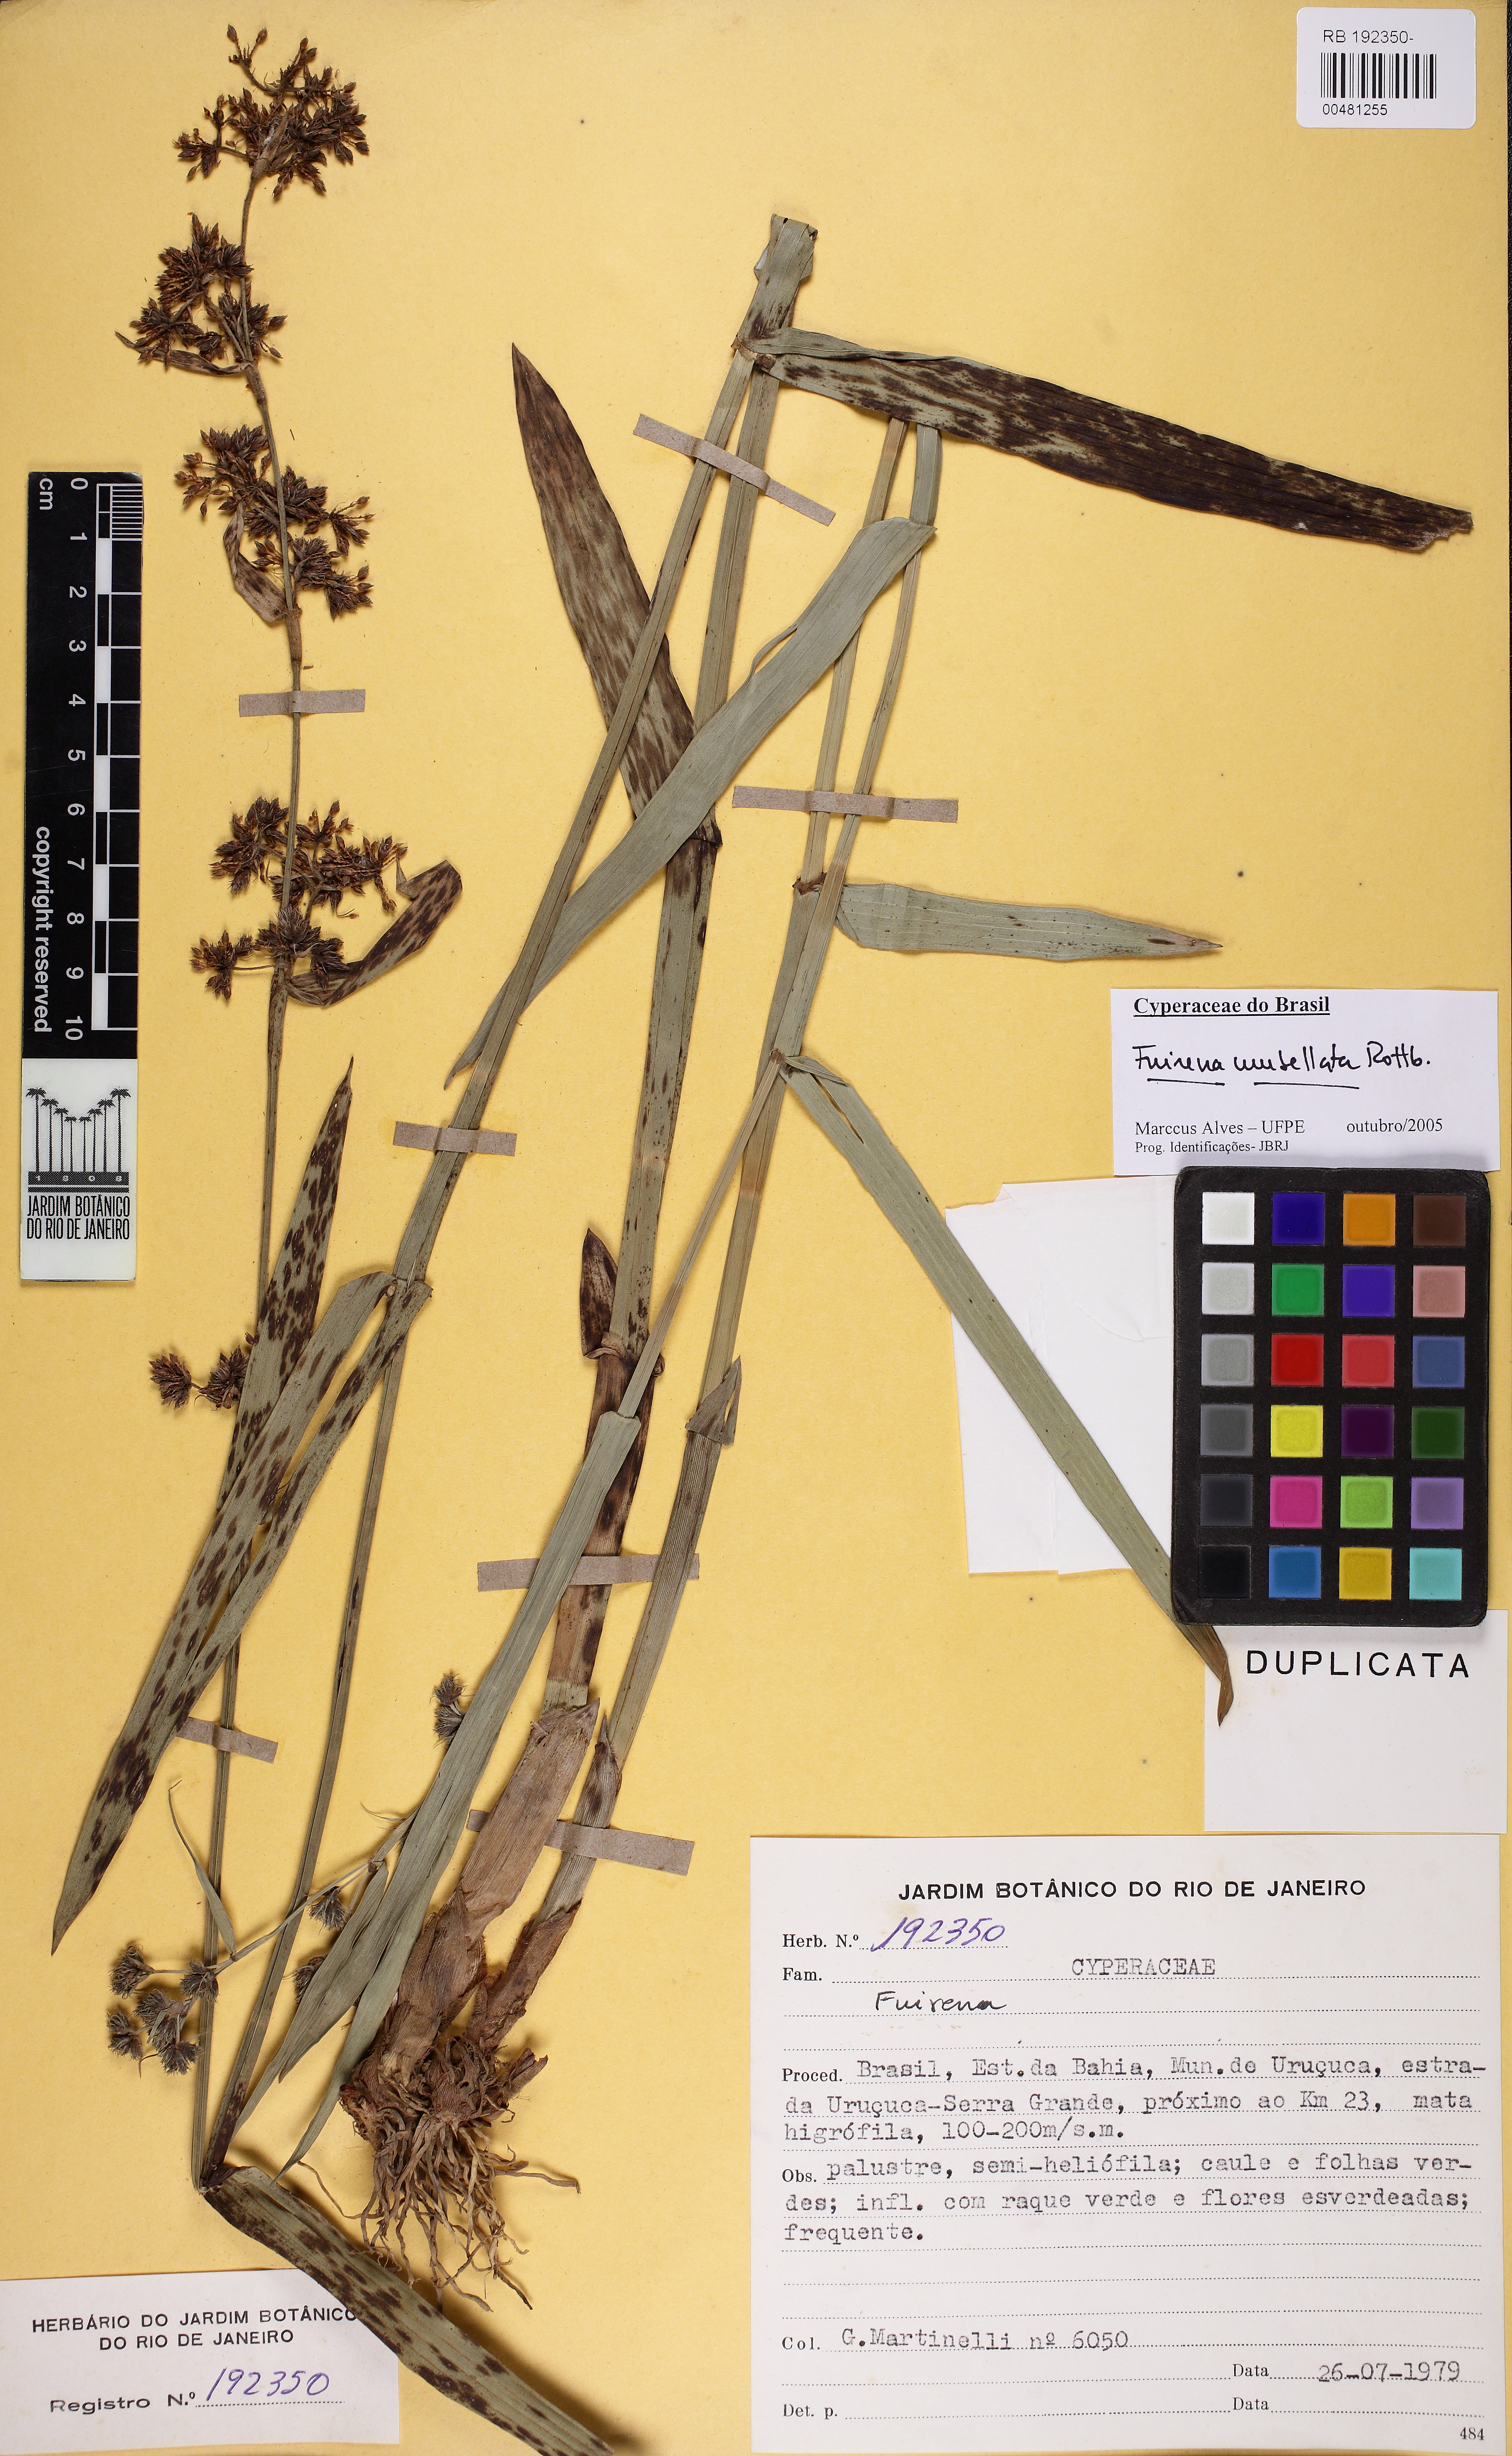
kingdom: Plantae
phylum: Tracheophyta
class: Liliopsida
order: Poales
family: Cyperaceae
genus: Fuirena
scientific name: Fuirena umbellata
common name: Yefen
